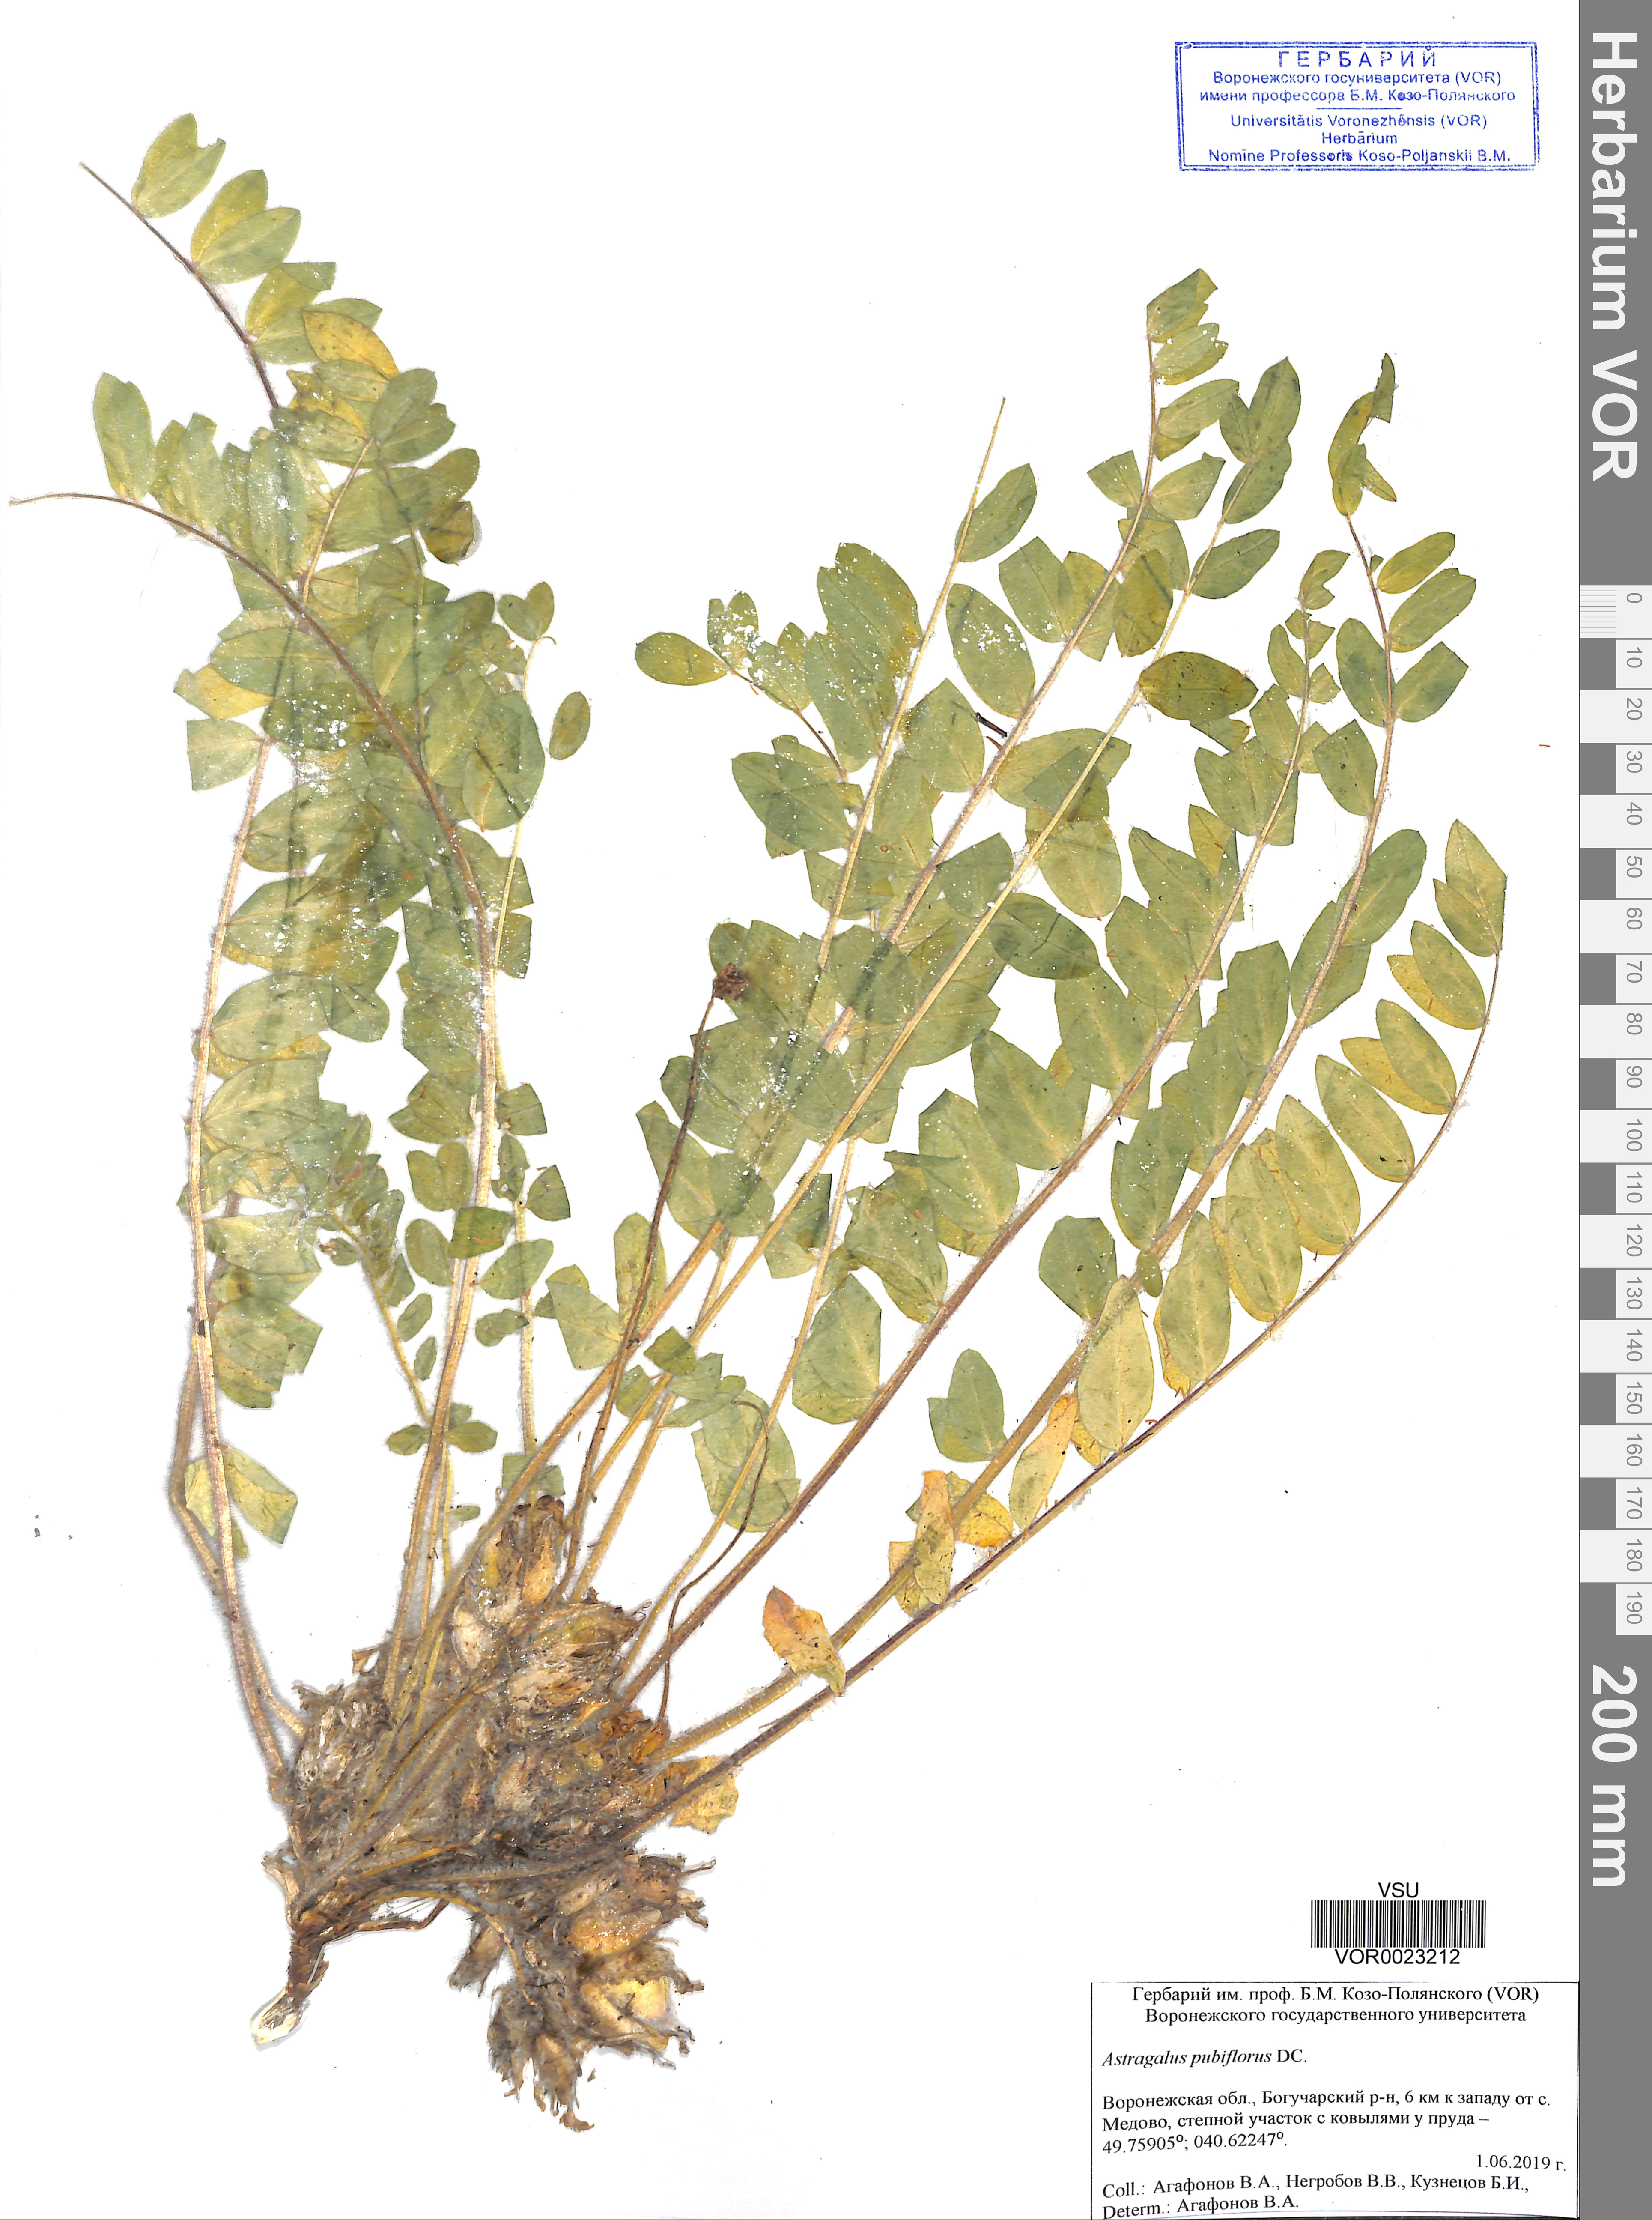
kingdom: Plantae
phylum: Tracheophyta
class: Magnoliopsida
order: Fabales
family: Fabaceae
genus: Astragalus
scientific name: Astragalus exscapus
